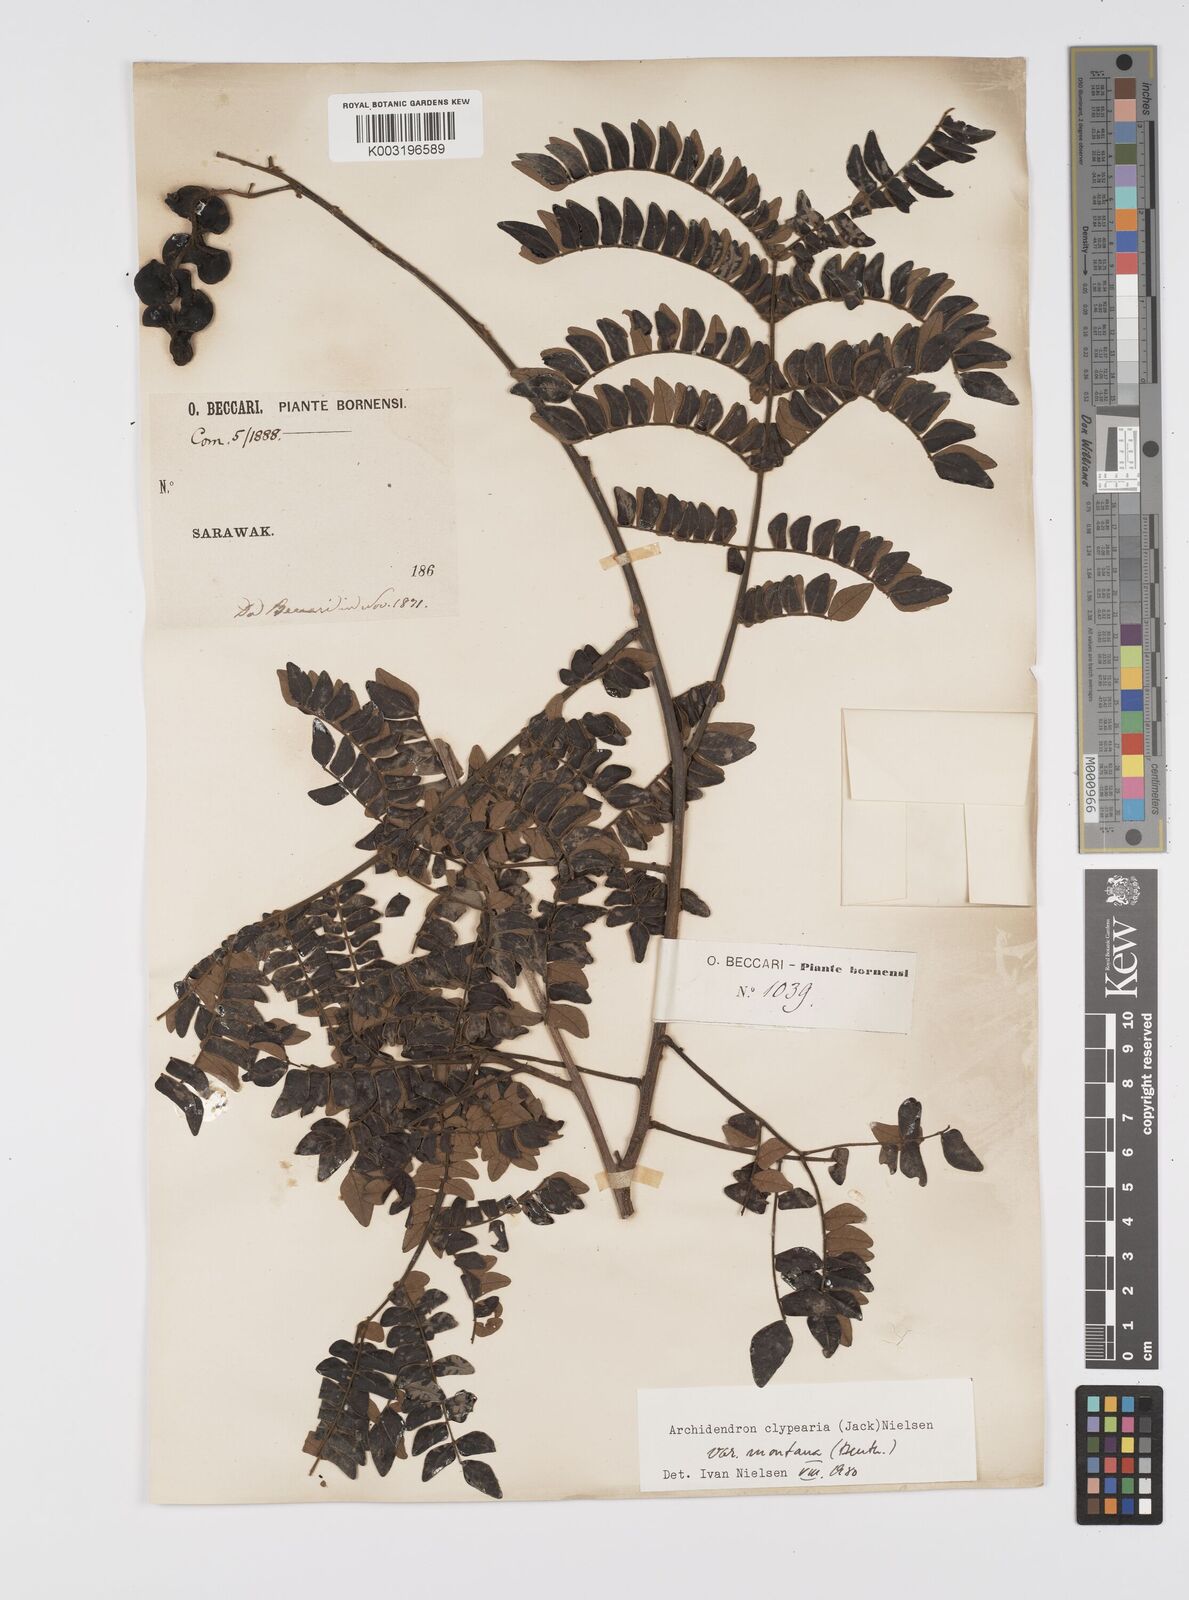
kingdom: Plantae
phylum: Tracheophyta
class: Magnoliopsida
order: Fabales
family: Fabaceae
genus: Archidendron
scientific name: Archidendron clypearia
